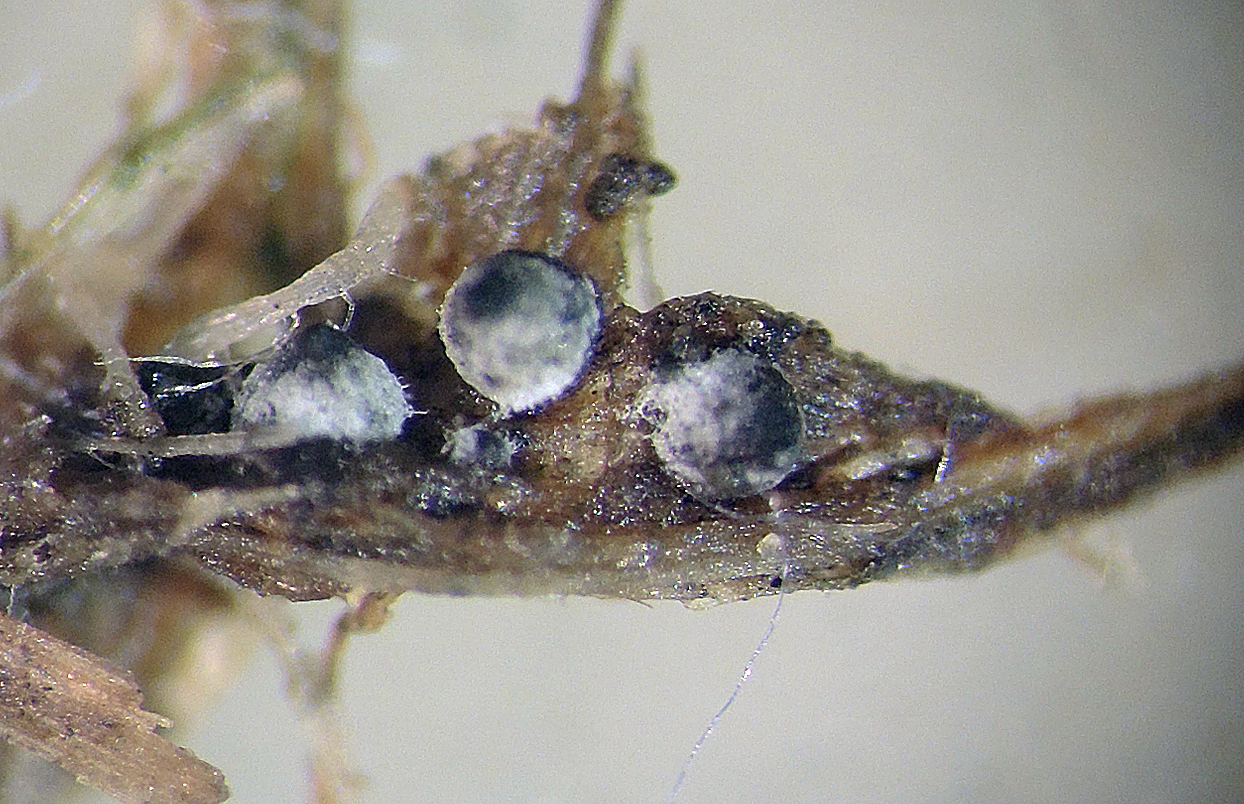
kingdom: Fungi
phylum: Ascomycota
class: Sordariomycetes
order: Sordariales
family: Podosporaceae
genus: Cladorrhinum
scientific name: Cladorrhinum coprophilum
